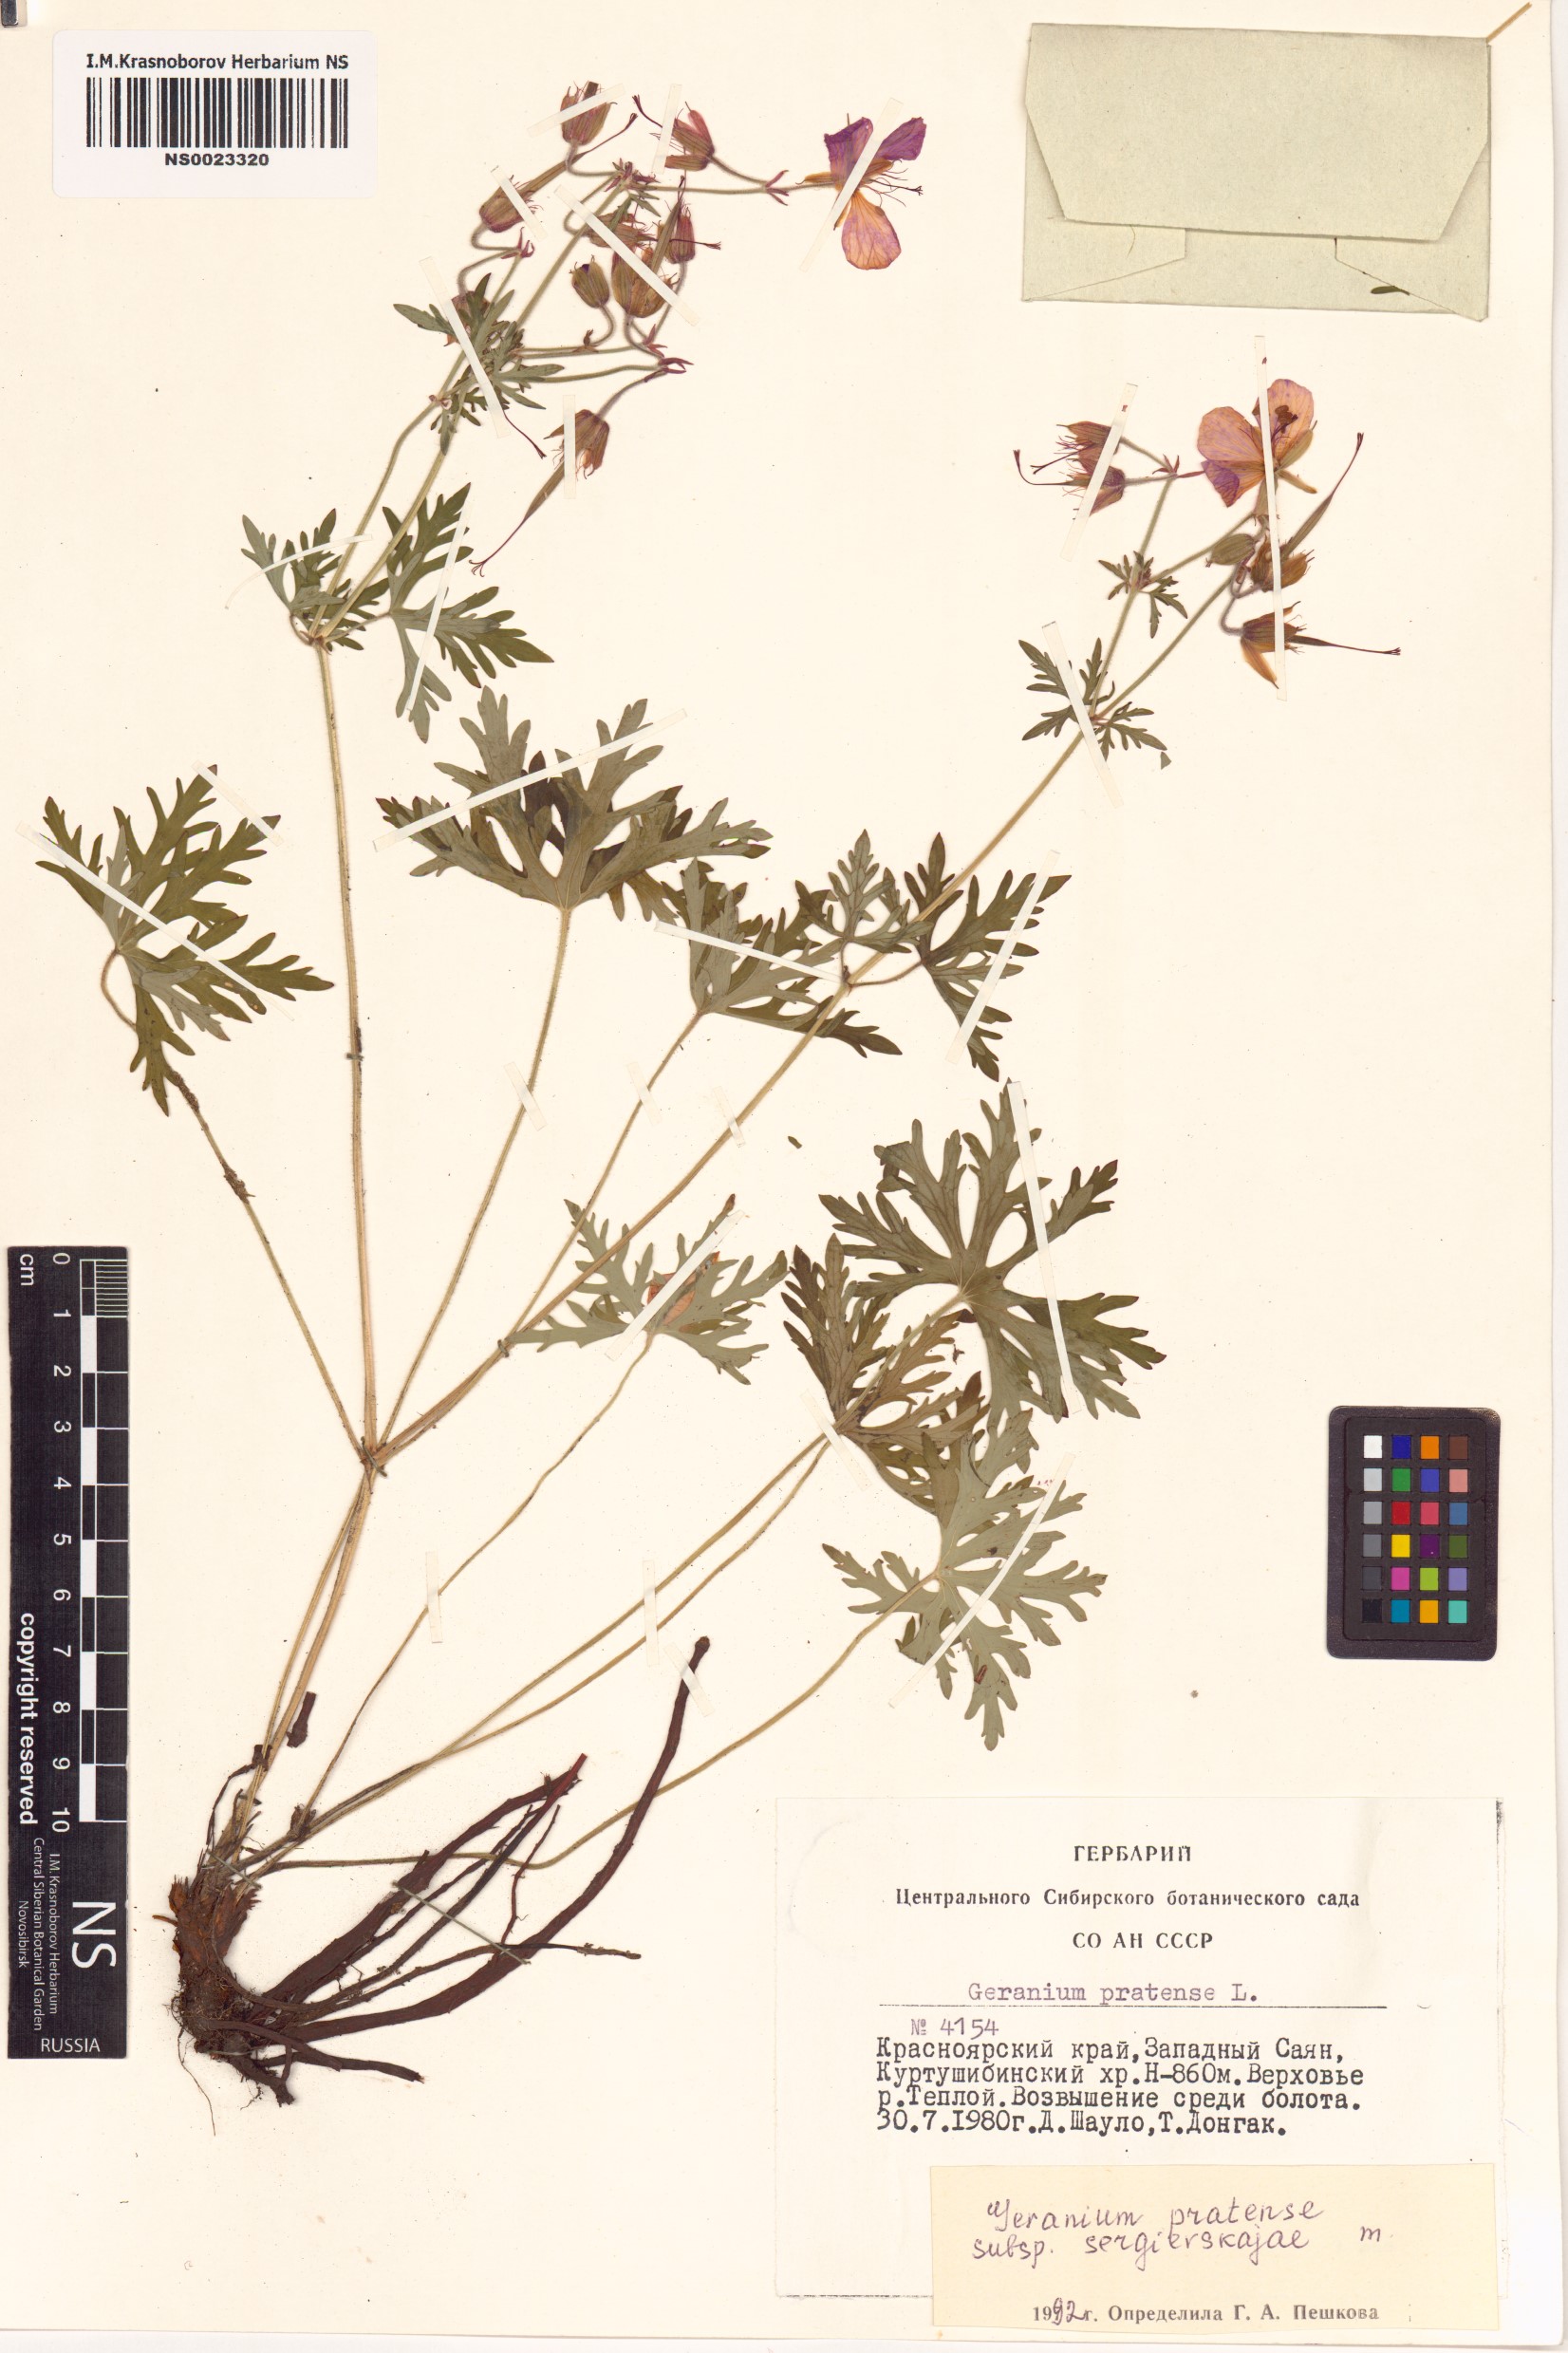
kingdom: Plantae
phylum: Tracheophyta
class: Magnoliopsida
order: Geraniales
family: Geraniaceae
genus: Geranium
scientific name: Geranium pratense
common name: Meadow crane's-bill
